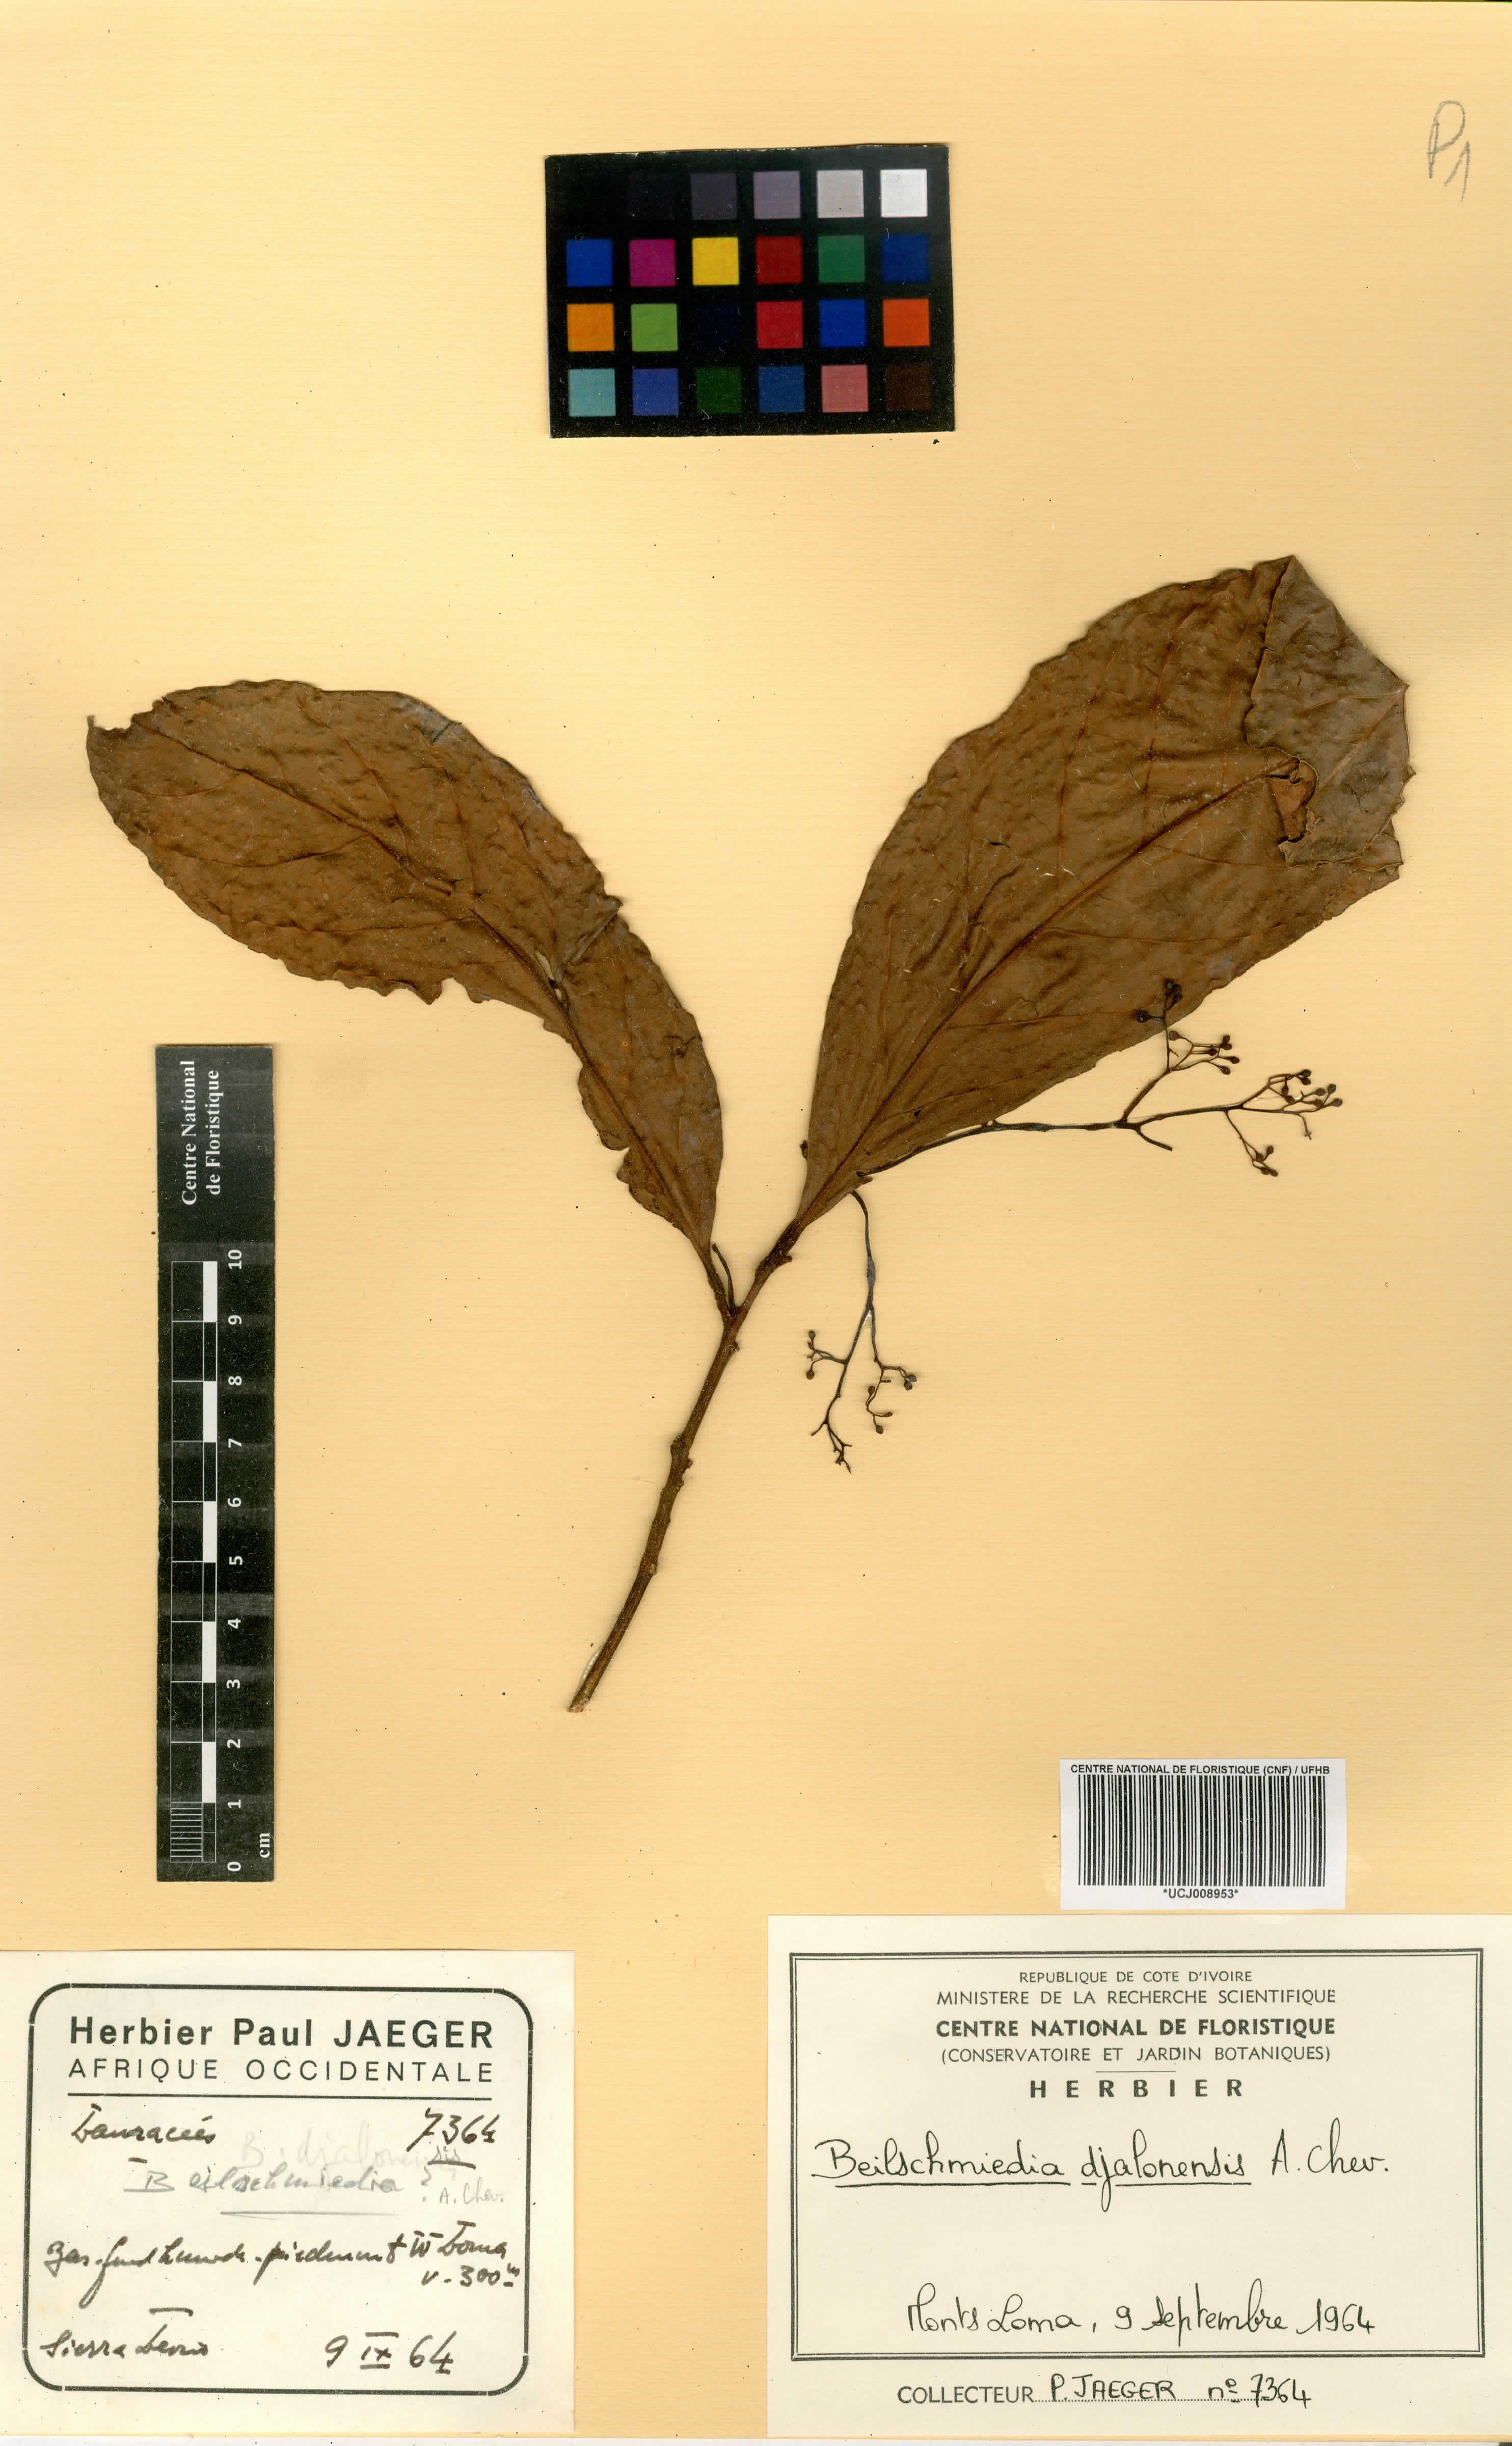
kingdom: Plantae
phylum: Tracheophyta
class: Magnoliopsida
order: Laurales
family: Lauraceae
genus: Beilschmiedia
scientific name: Beilschmiedia djalonensis
